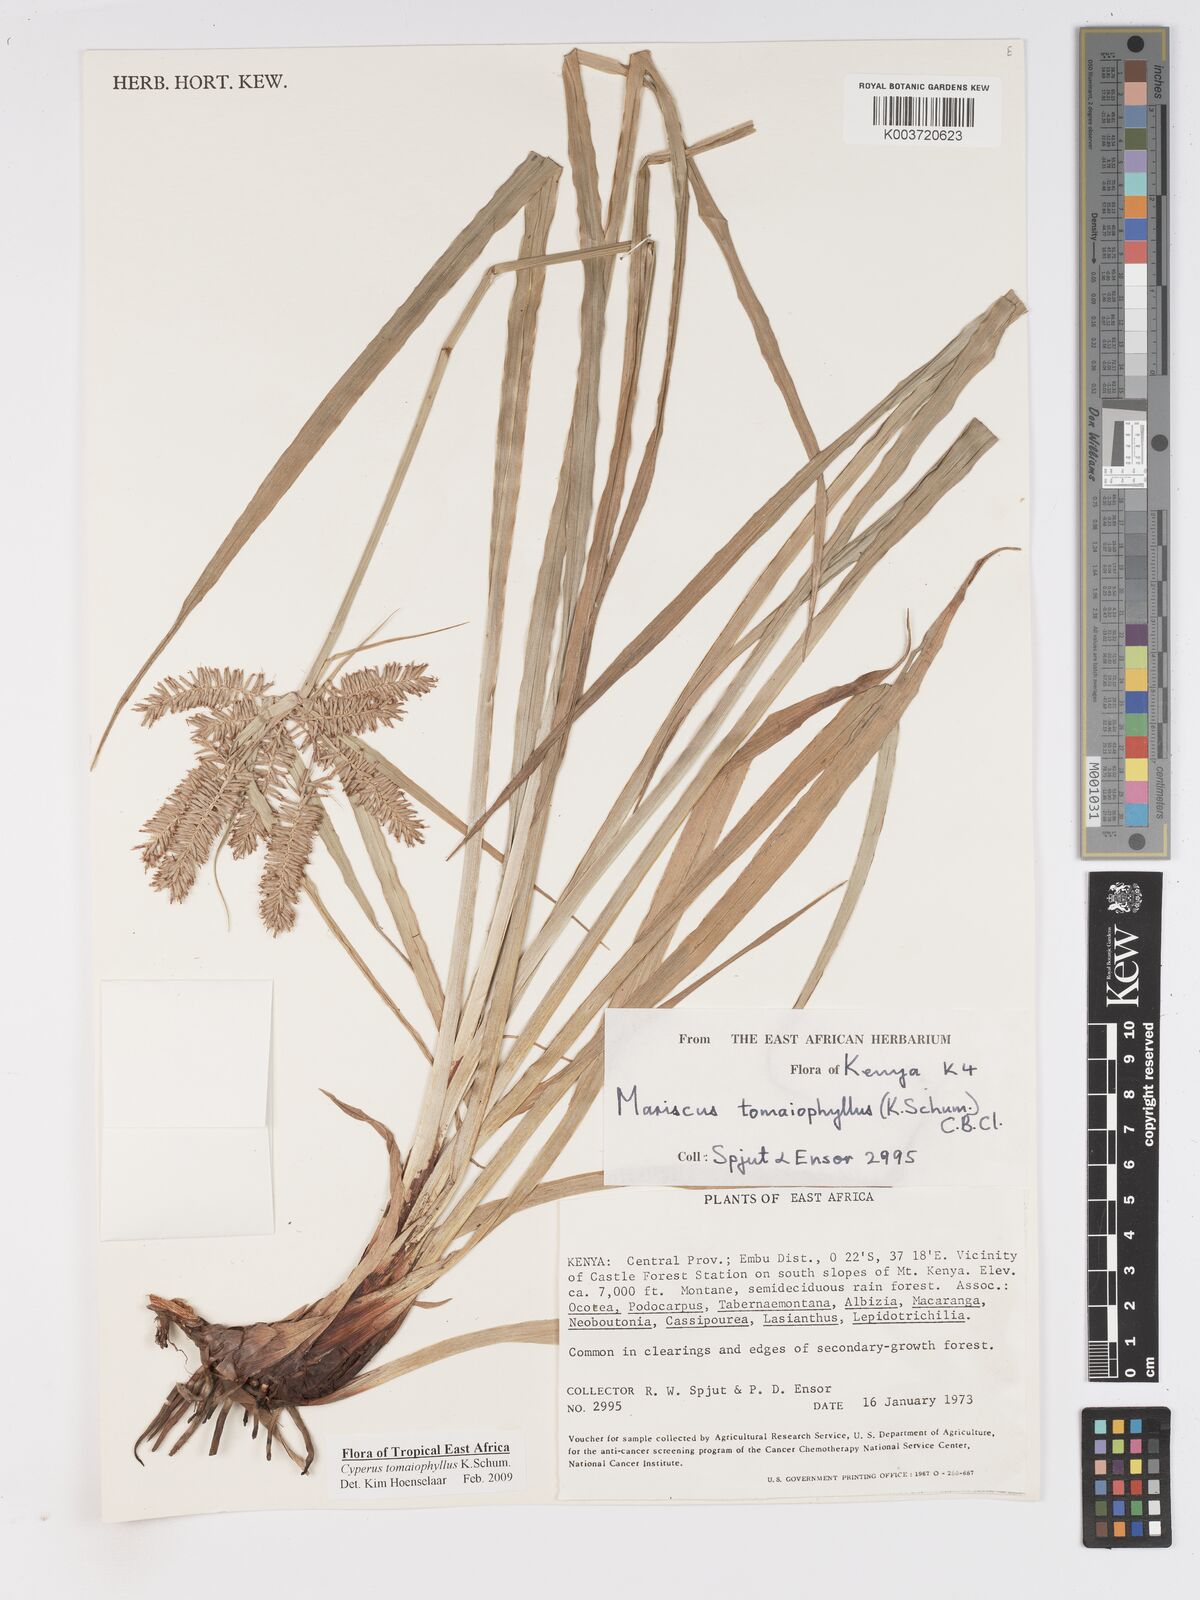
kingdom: Plantae
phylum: Tracheophyta
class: Liliopsida
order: Poales
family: Cyperaceae
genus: Cyperus
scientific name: Cyperus tomaiophyllus
